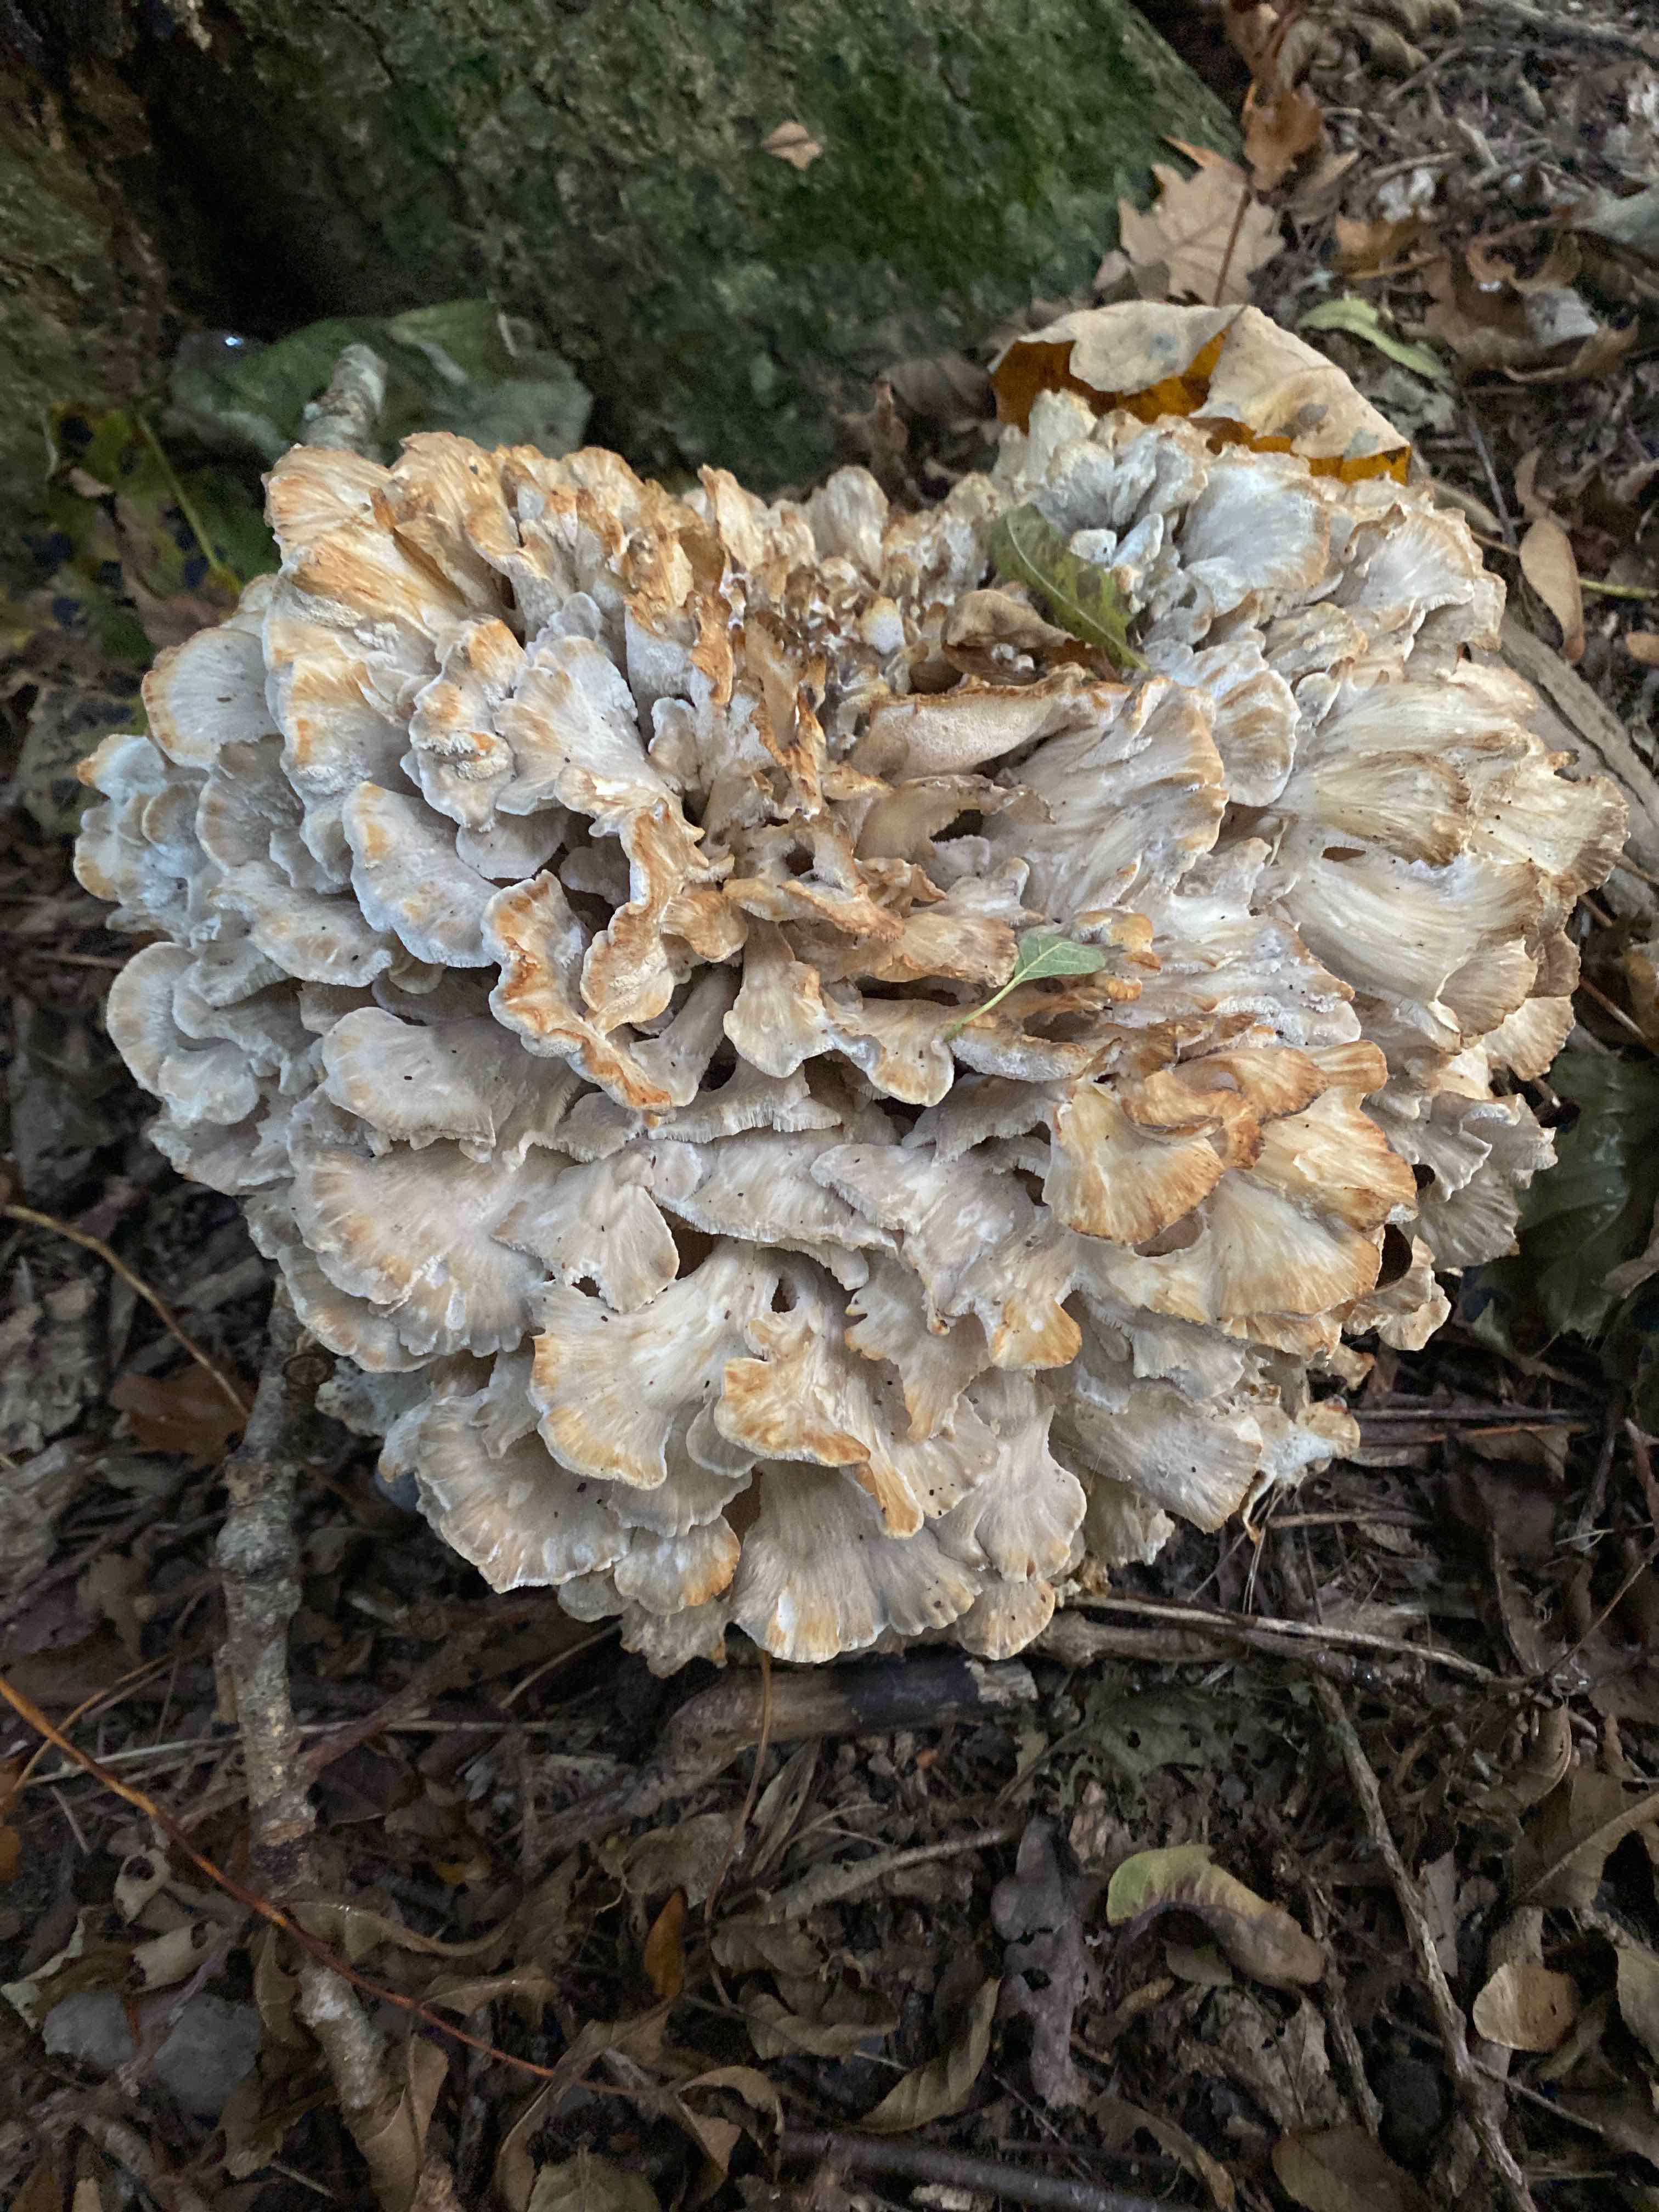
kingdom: Fungi
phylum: Basidiomycota
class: Agaricomycetes
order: Polyporales
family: Grifolaceae
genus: Grifola
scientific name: Grifola frondosa
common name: tueporesvamp
